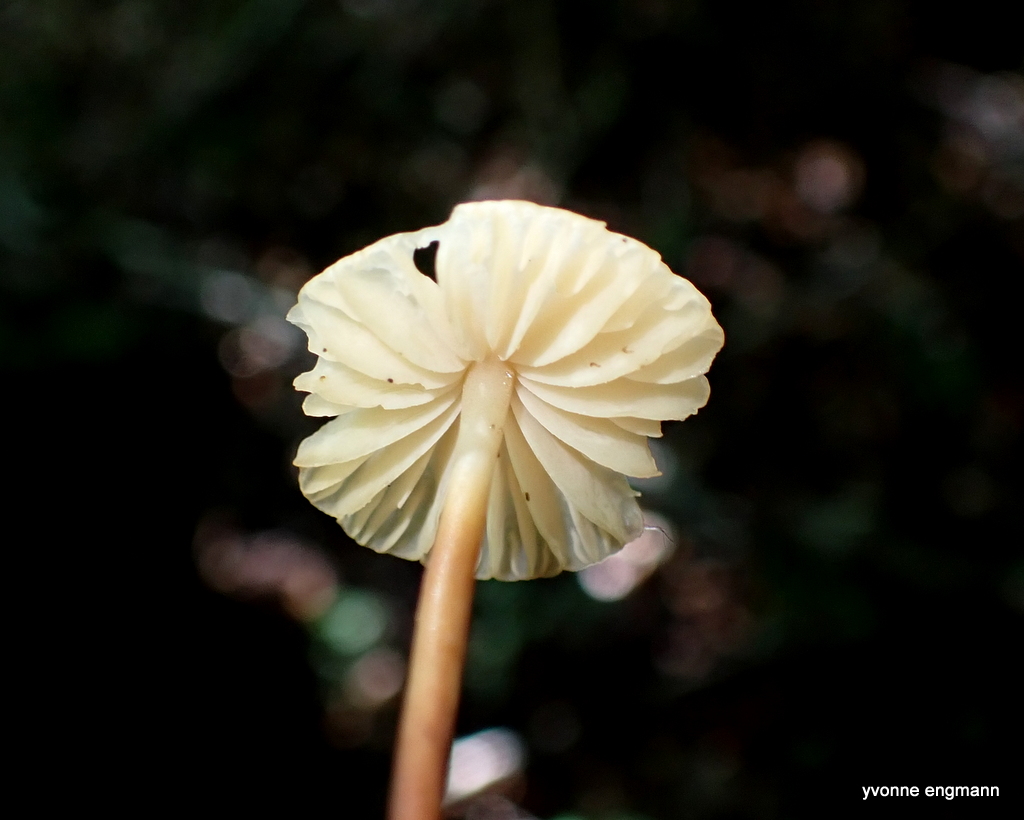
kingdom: Fungi
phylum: Basidiomycota
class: Agaricomycetes
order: Agaricales
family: Marasmiaceae
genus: Marasmius
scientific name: Marasmius torquescens
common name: filtfodet bruskhat
